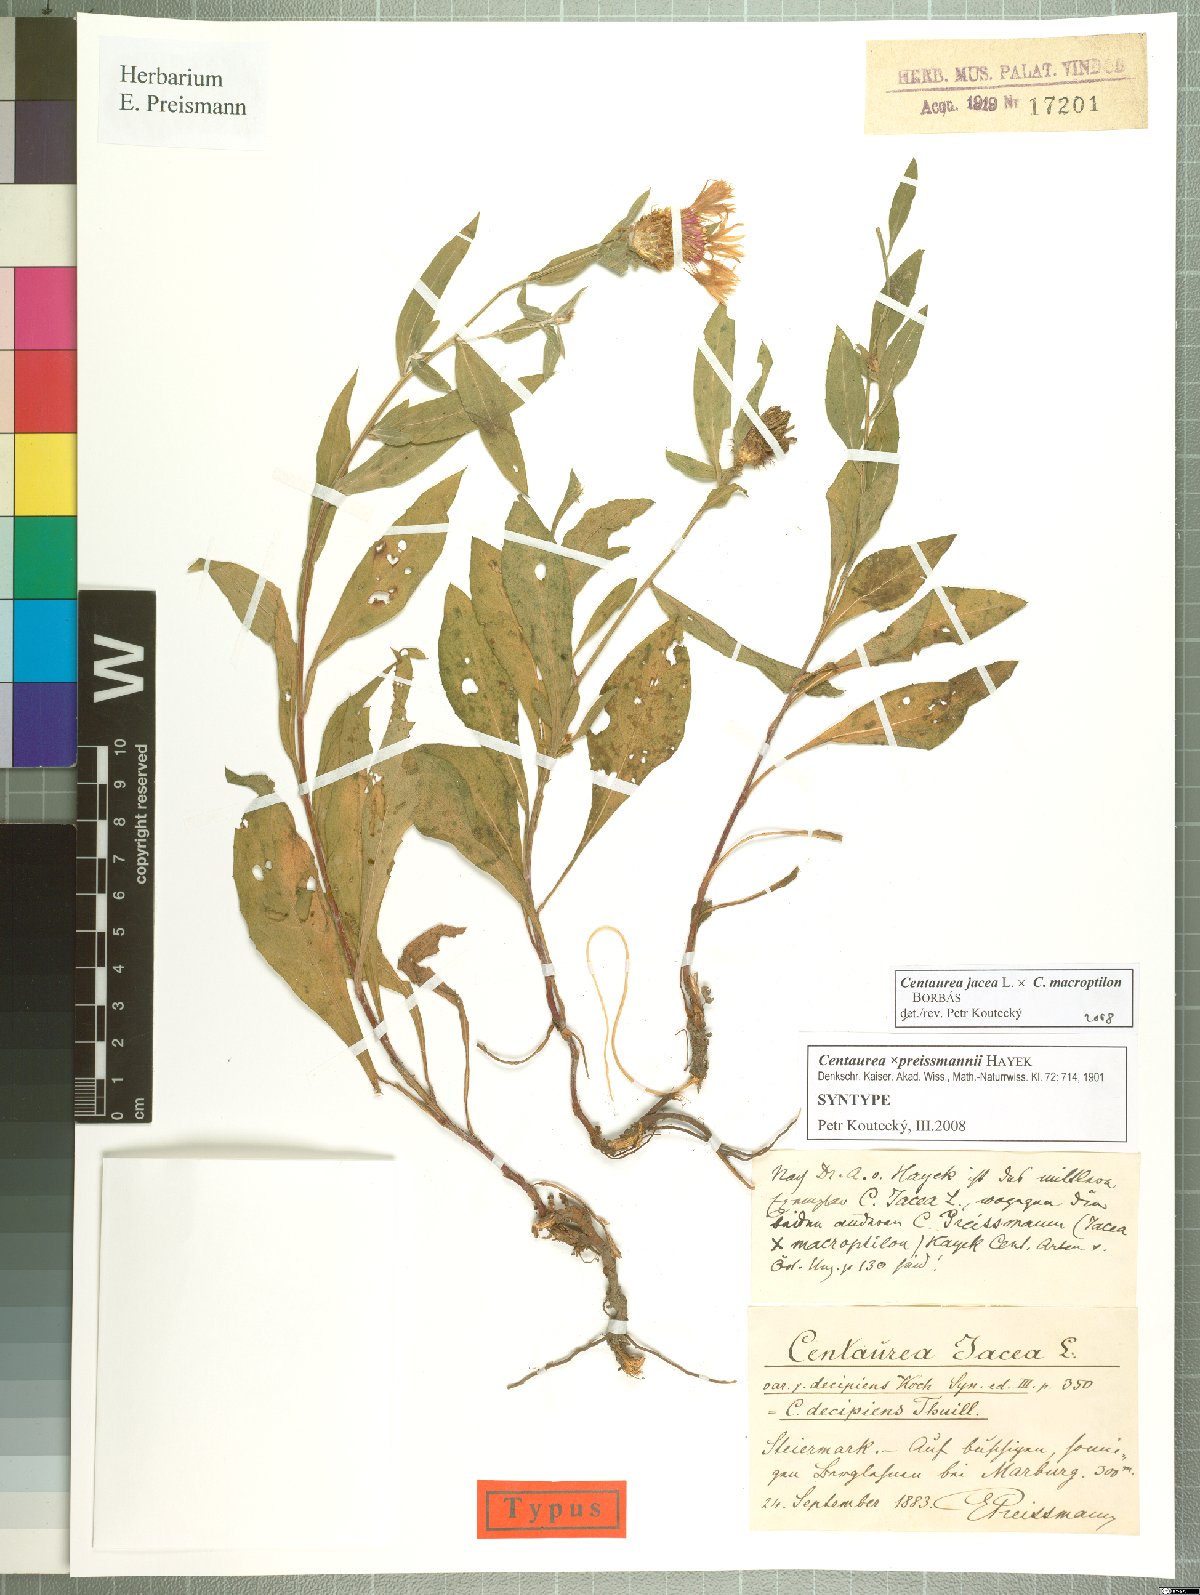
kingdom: Plantae
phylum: Tracheophyta
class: Magnoliopsida
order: Asterales
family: Asteraceae
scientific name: Asteraceae
